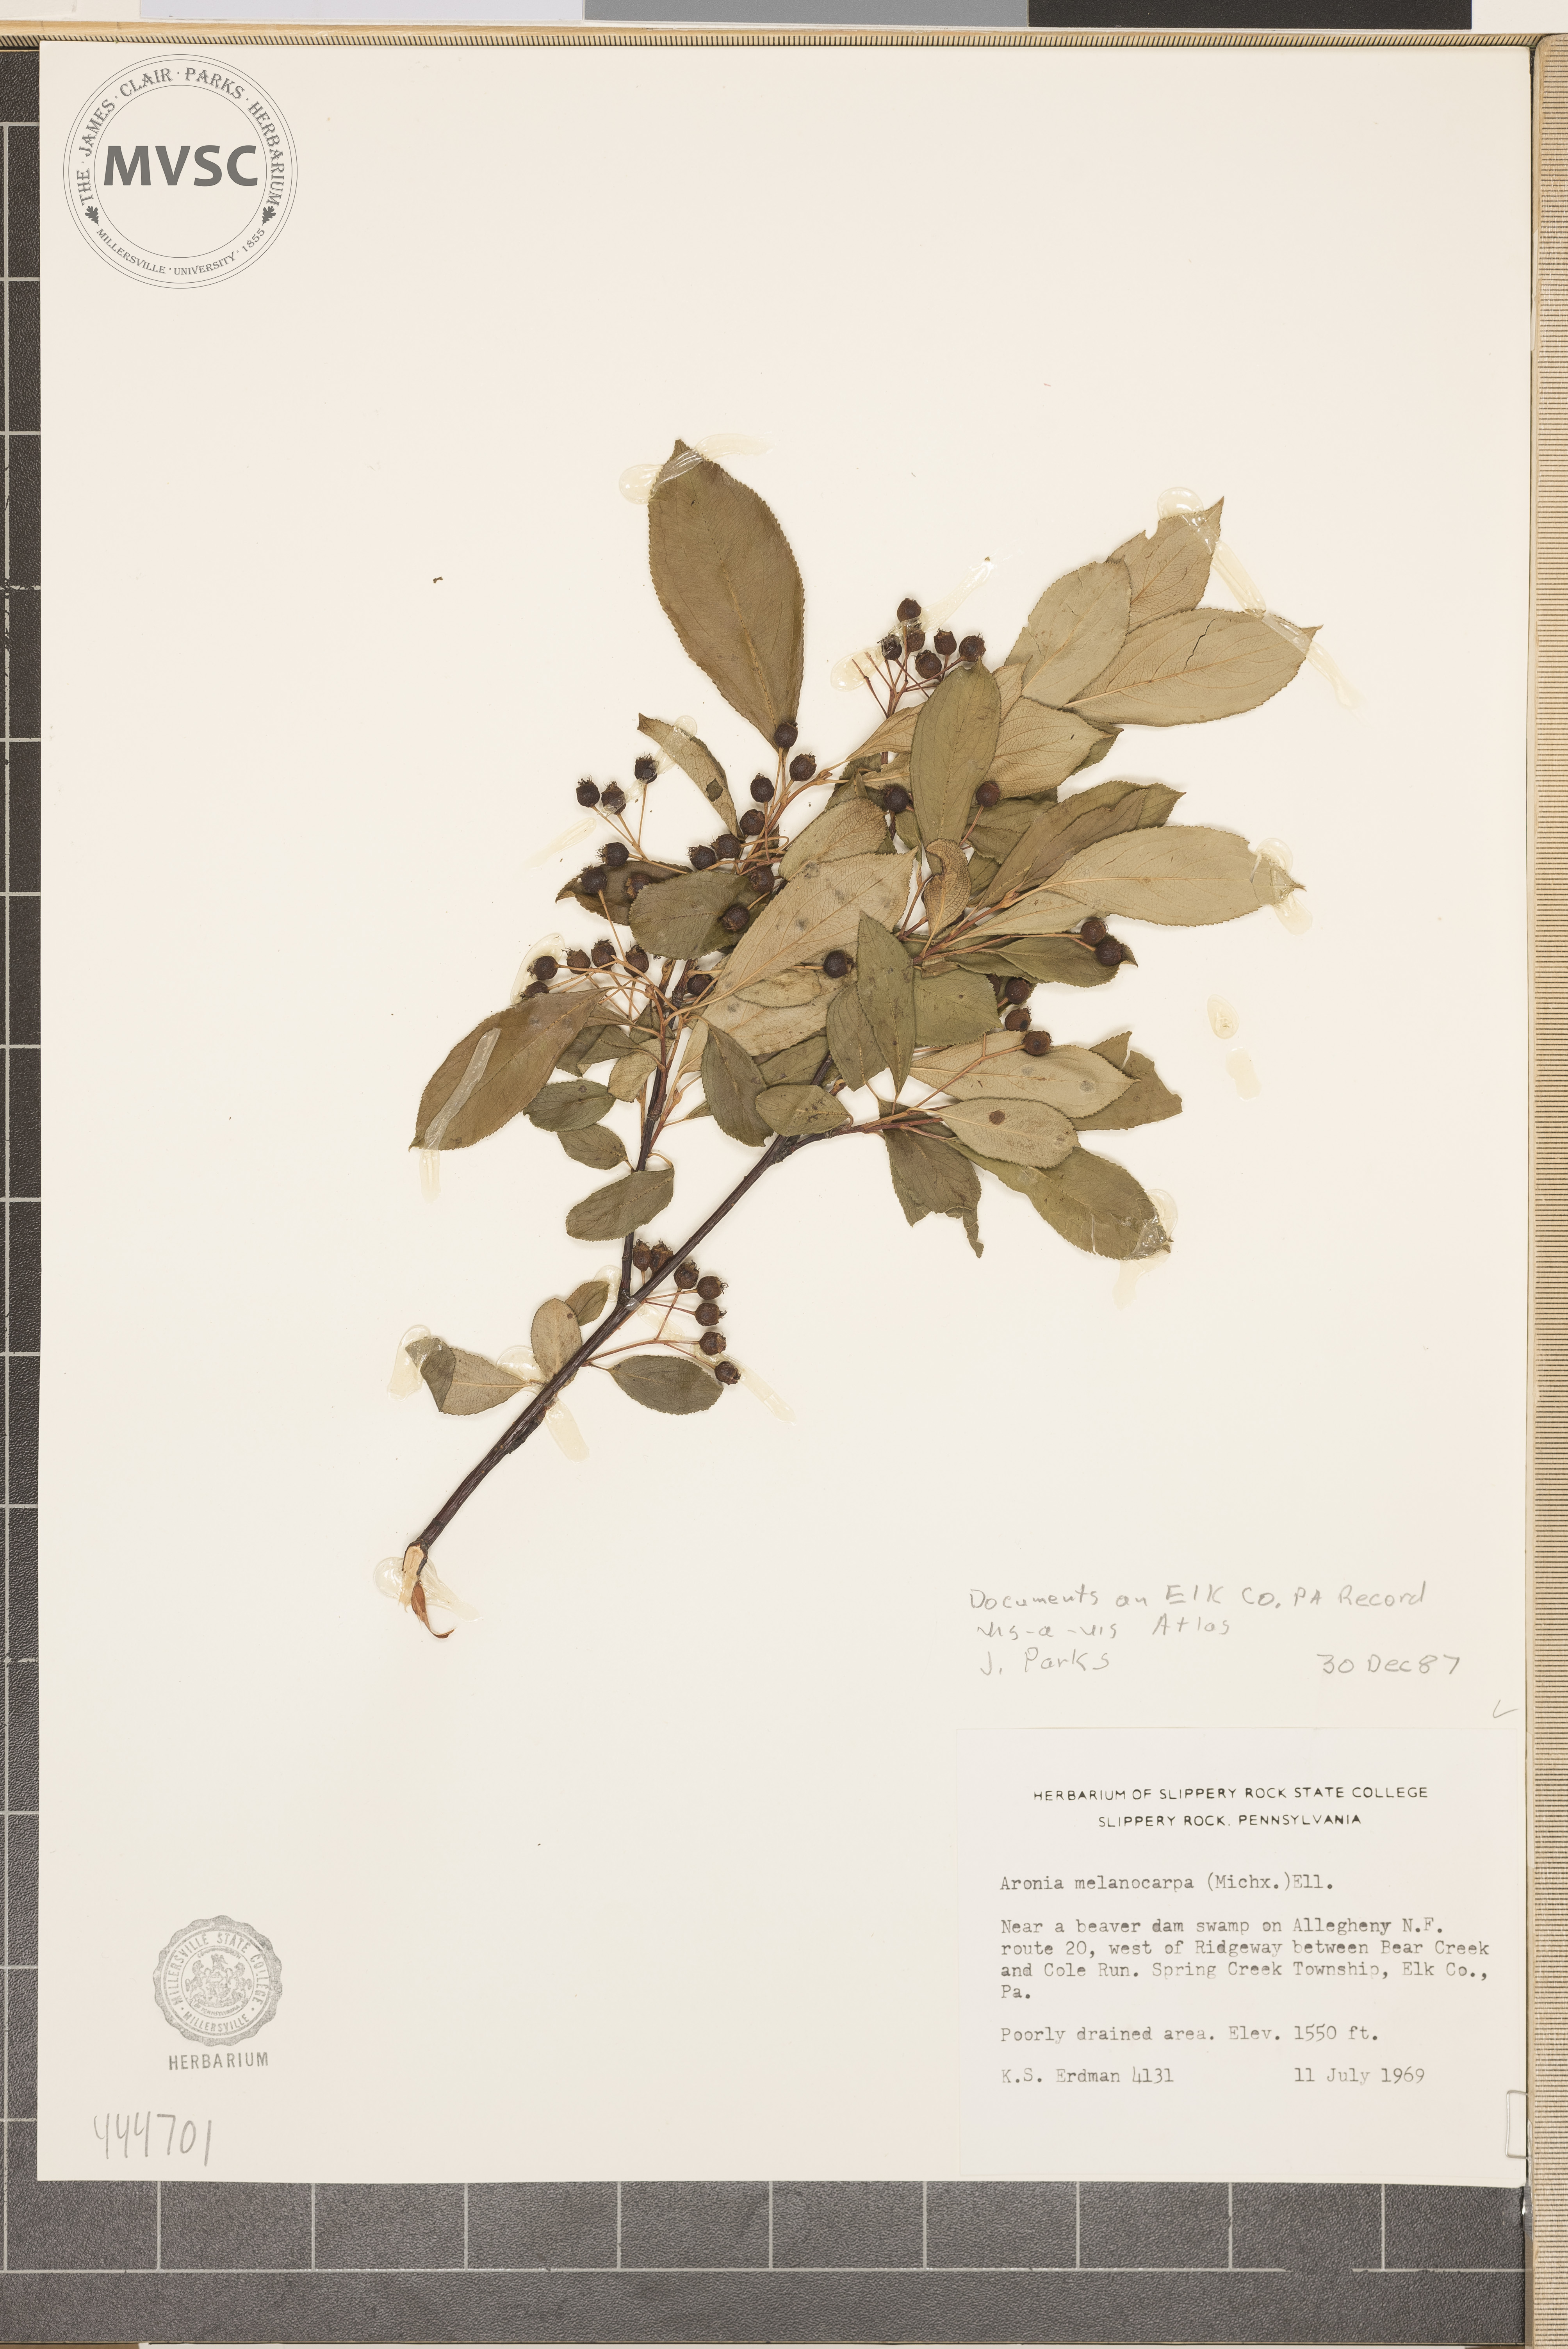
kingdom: Plantae
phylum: Tracheophyta
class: Magnoliopsida
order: Rosales
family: Rosaceae
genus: Aronia
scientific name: Aronia melanocarpa
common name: Black chokeberry
